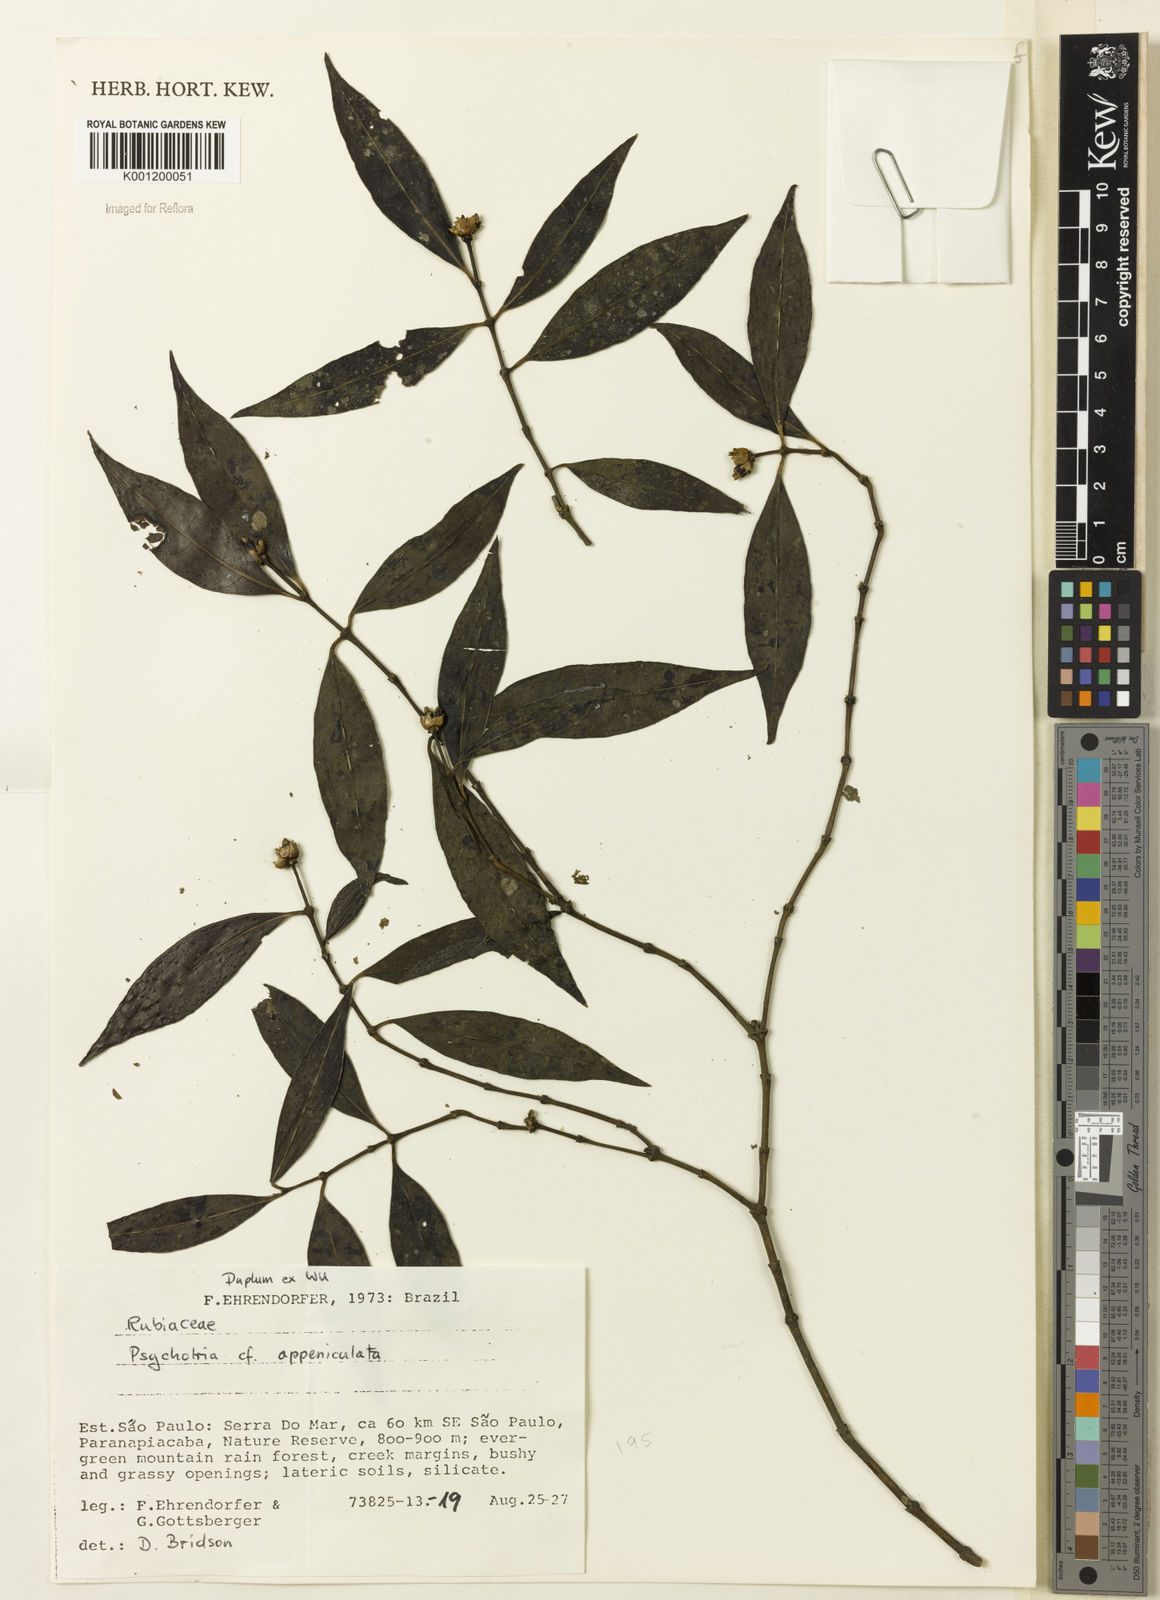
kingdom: Plantae
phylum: Tracheophyta
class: Magnoliopsida
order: Gentianales
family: Rubiaceae
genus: Psychotria
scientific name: Psychotria
